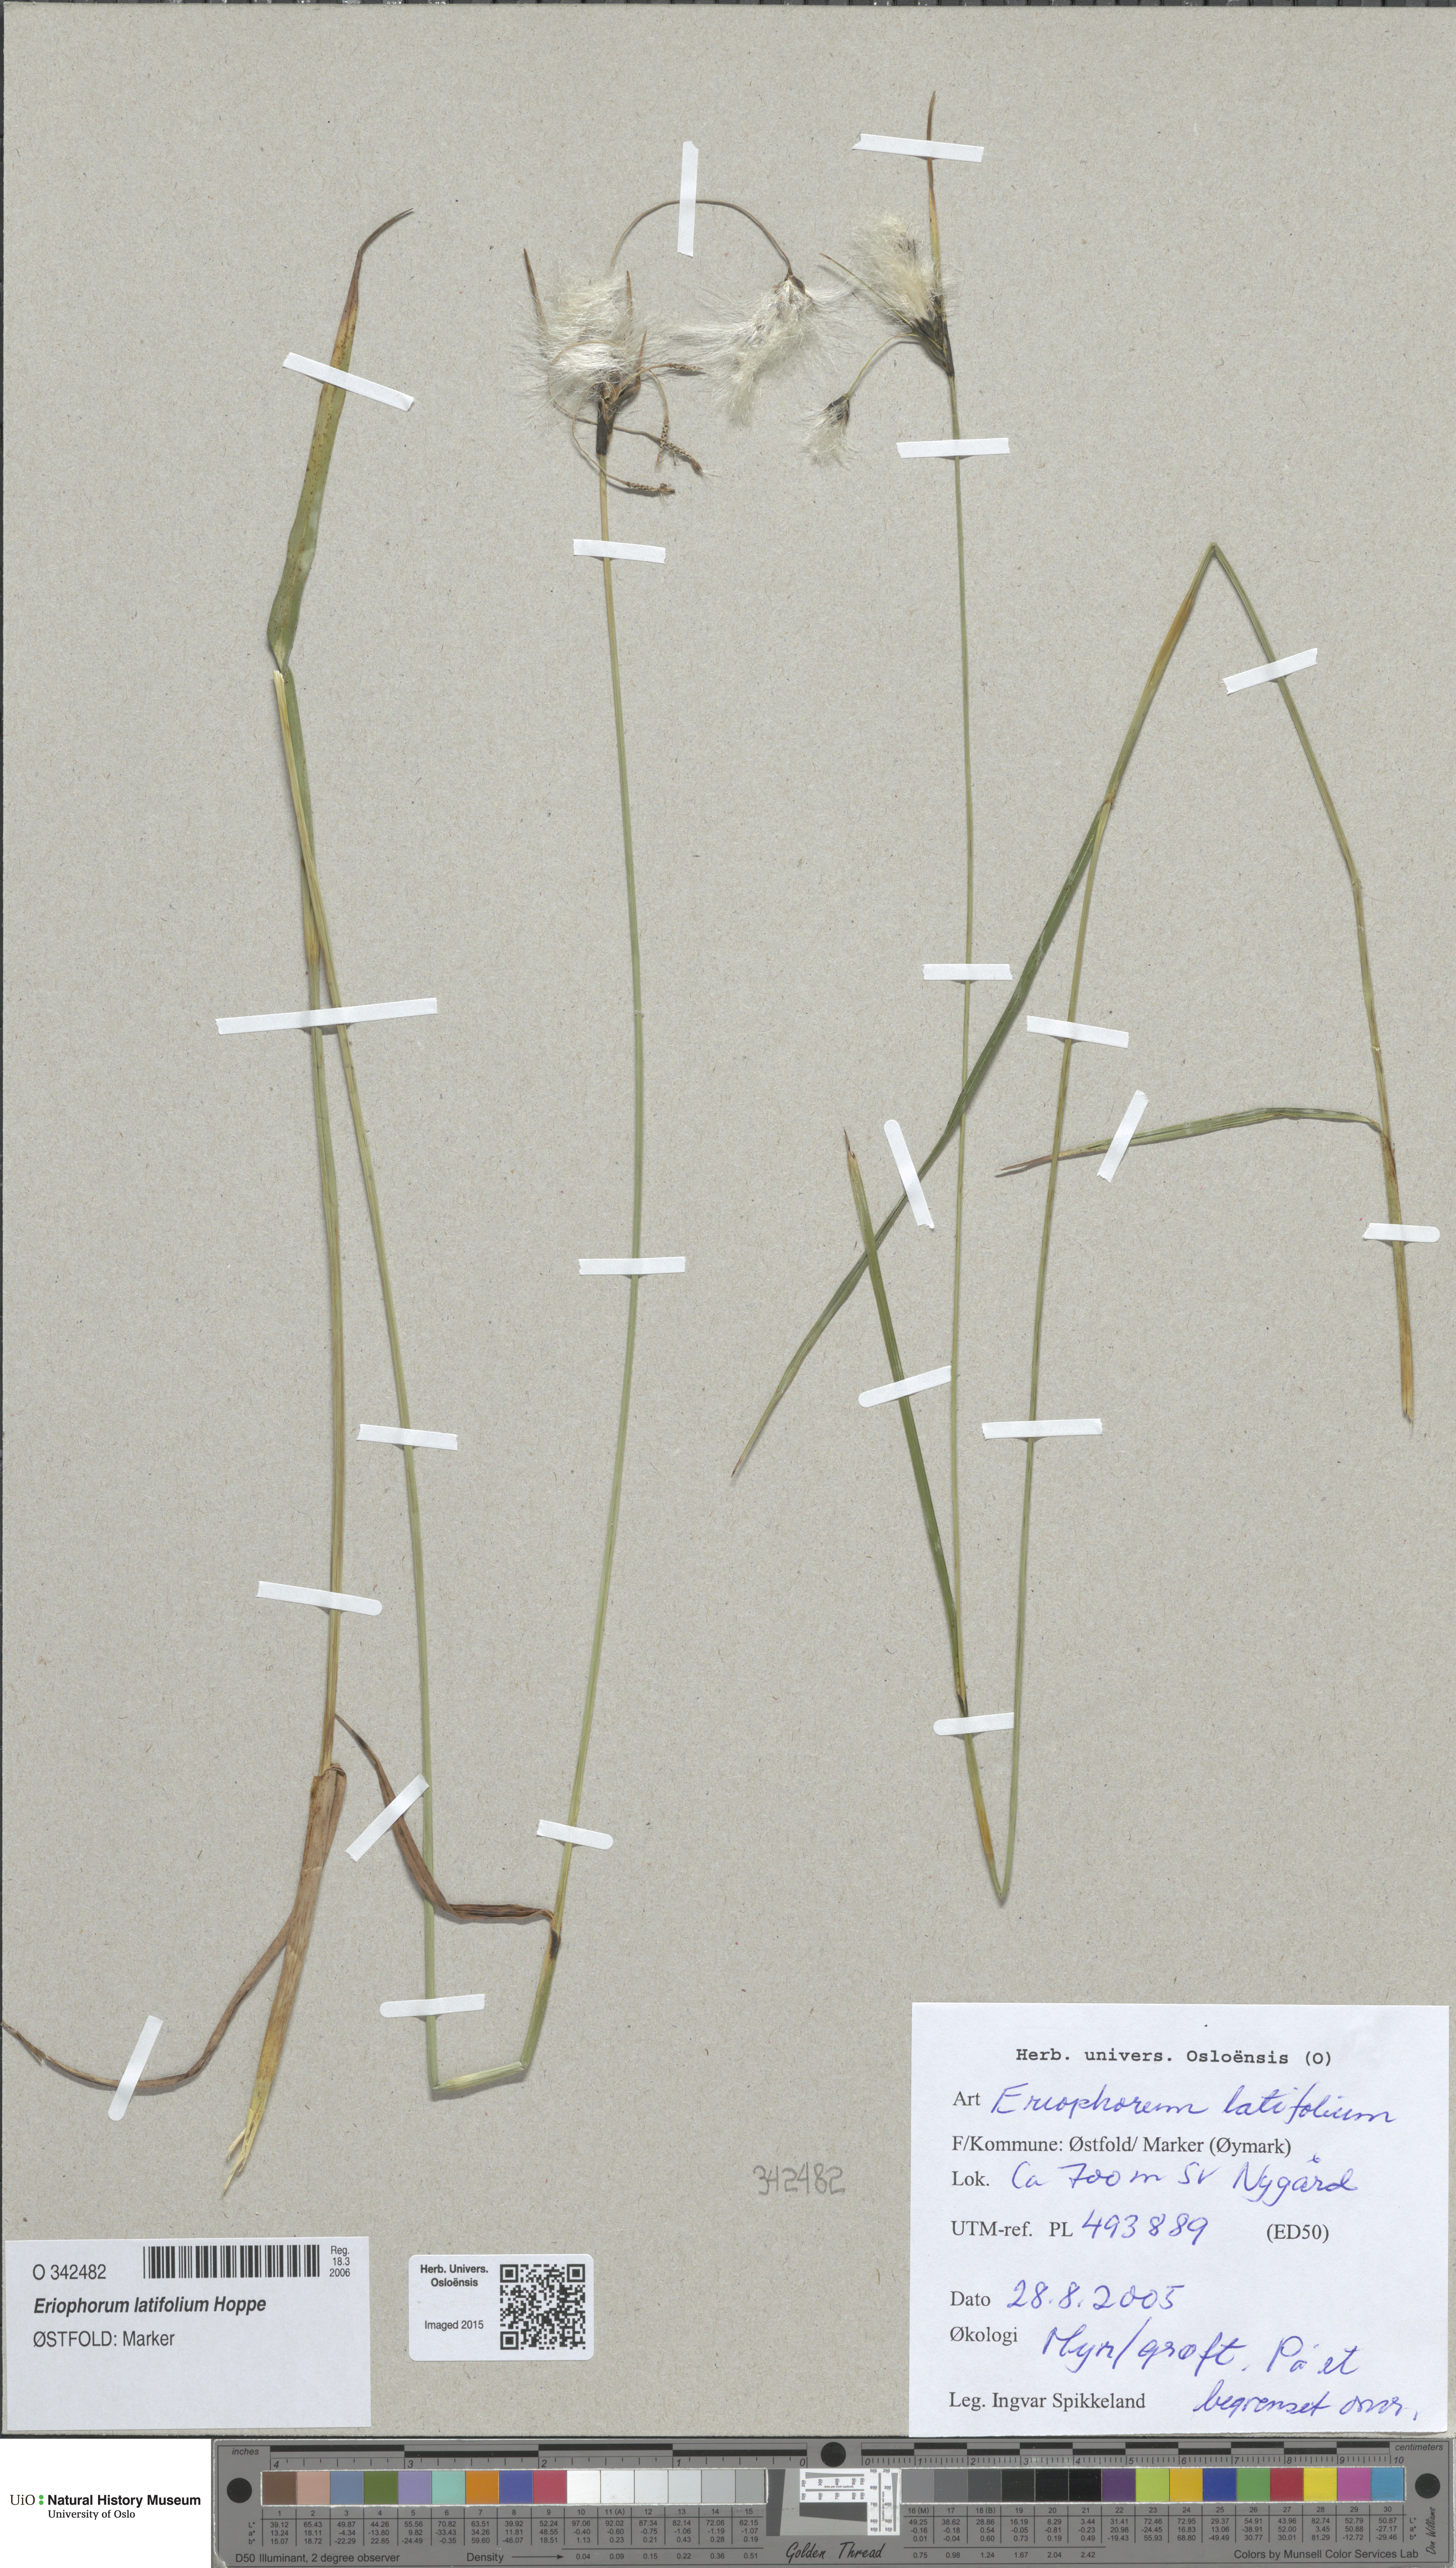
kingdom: Plantae
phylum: Tracheophyta
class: Liliopsida
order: Poales
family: Cyperaceae
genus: Eriophorum
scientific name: Eriophorum latifolium
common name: Broad-leaved cottongrass
